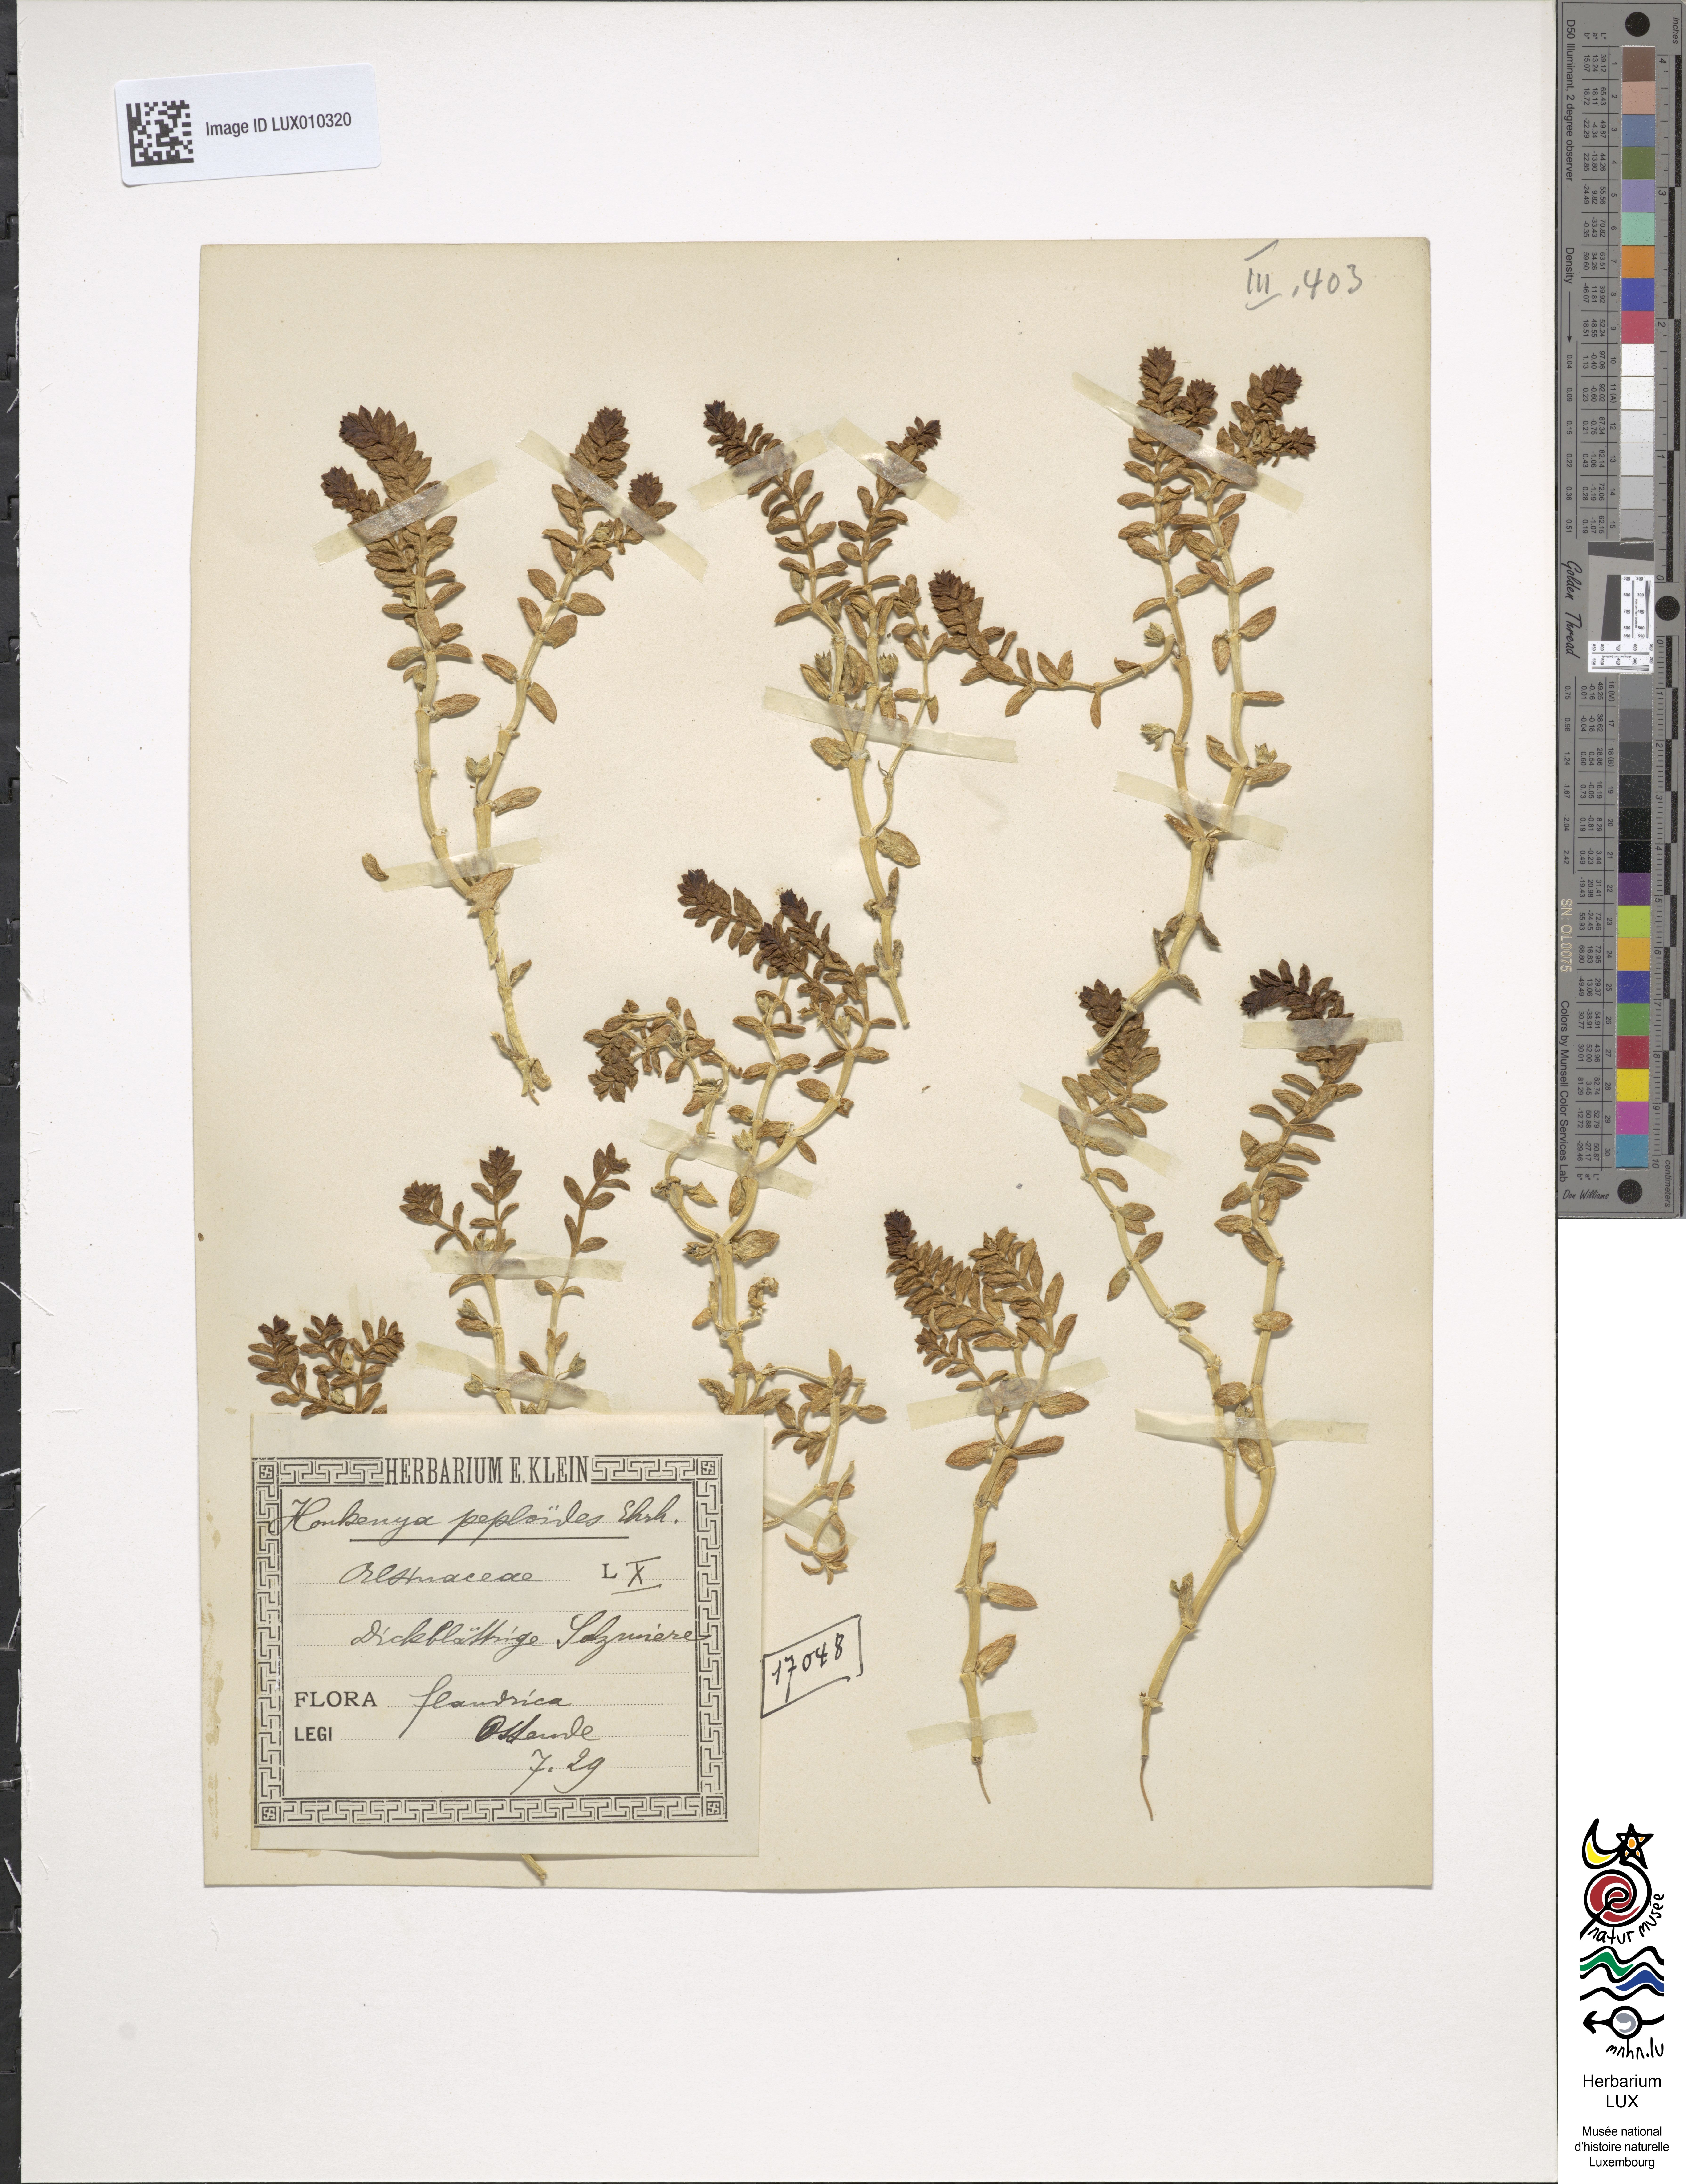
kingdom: Plantae
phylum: Tracheophyta
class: Magnoliopsida
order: Caryophyllales
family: Caryophyllaceae
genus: Honckenya
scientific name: Honckenya peploides
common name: Sea sandwort
